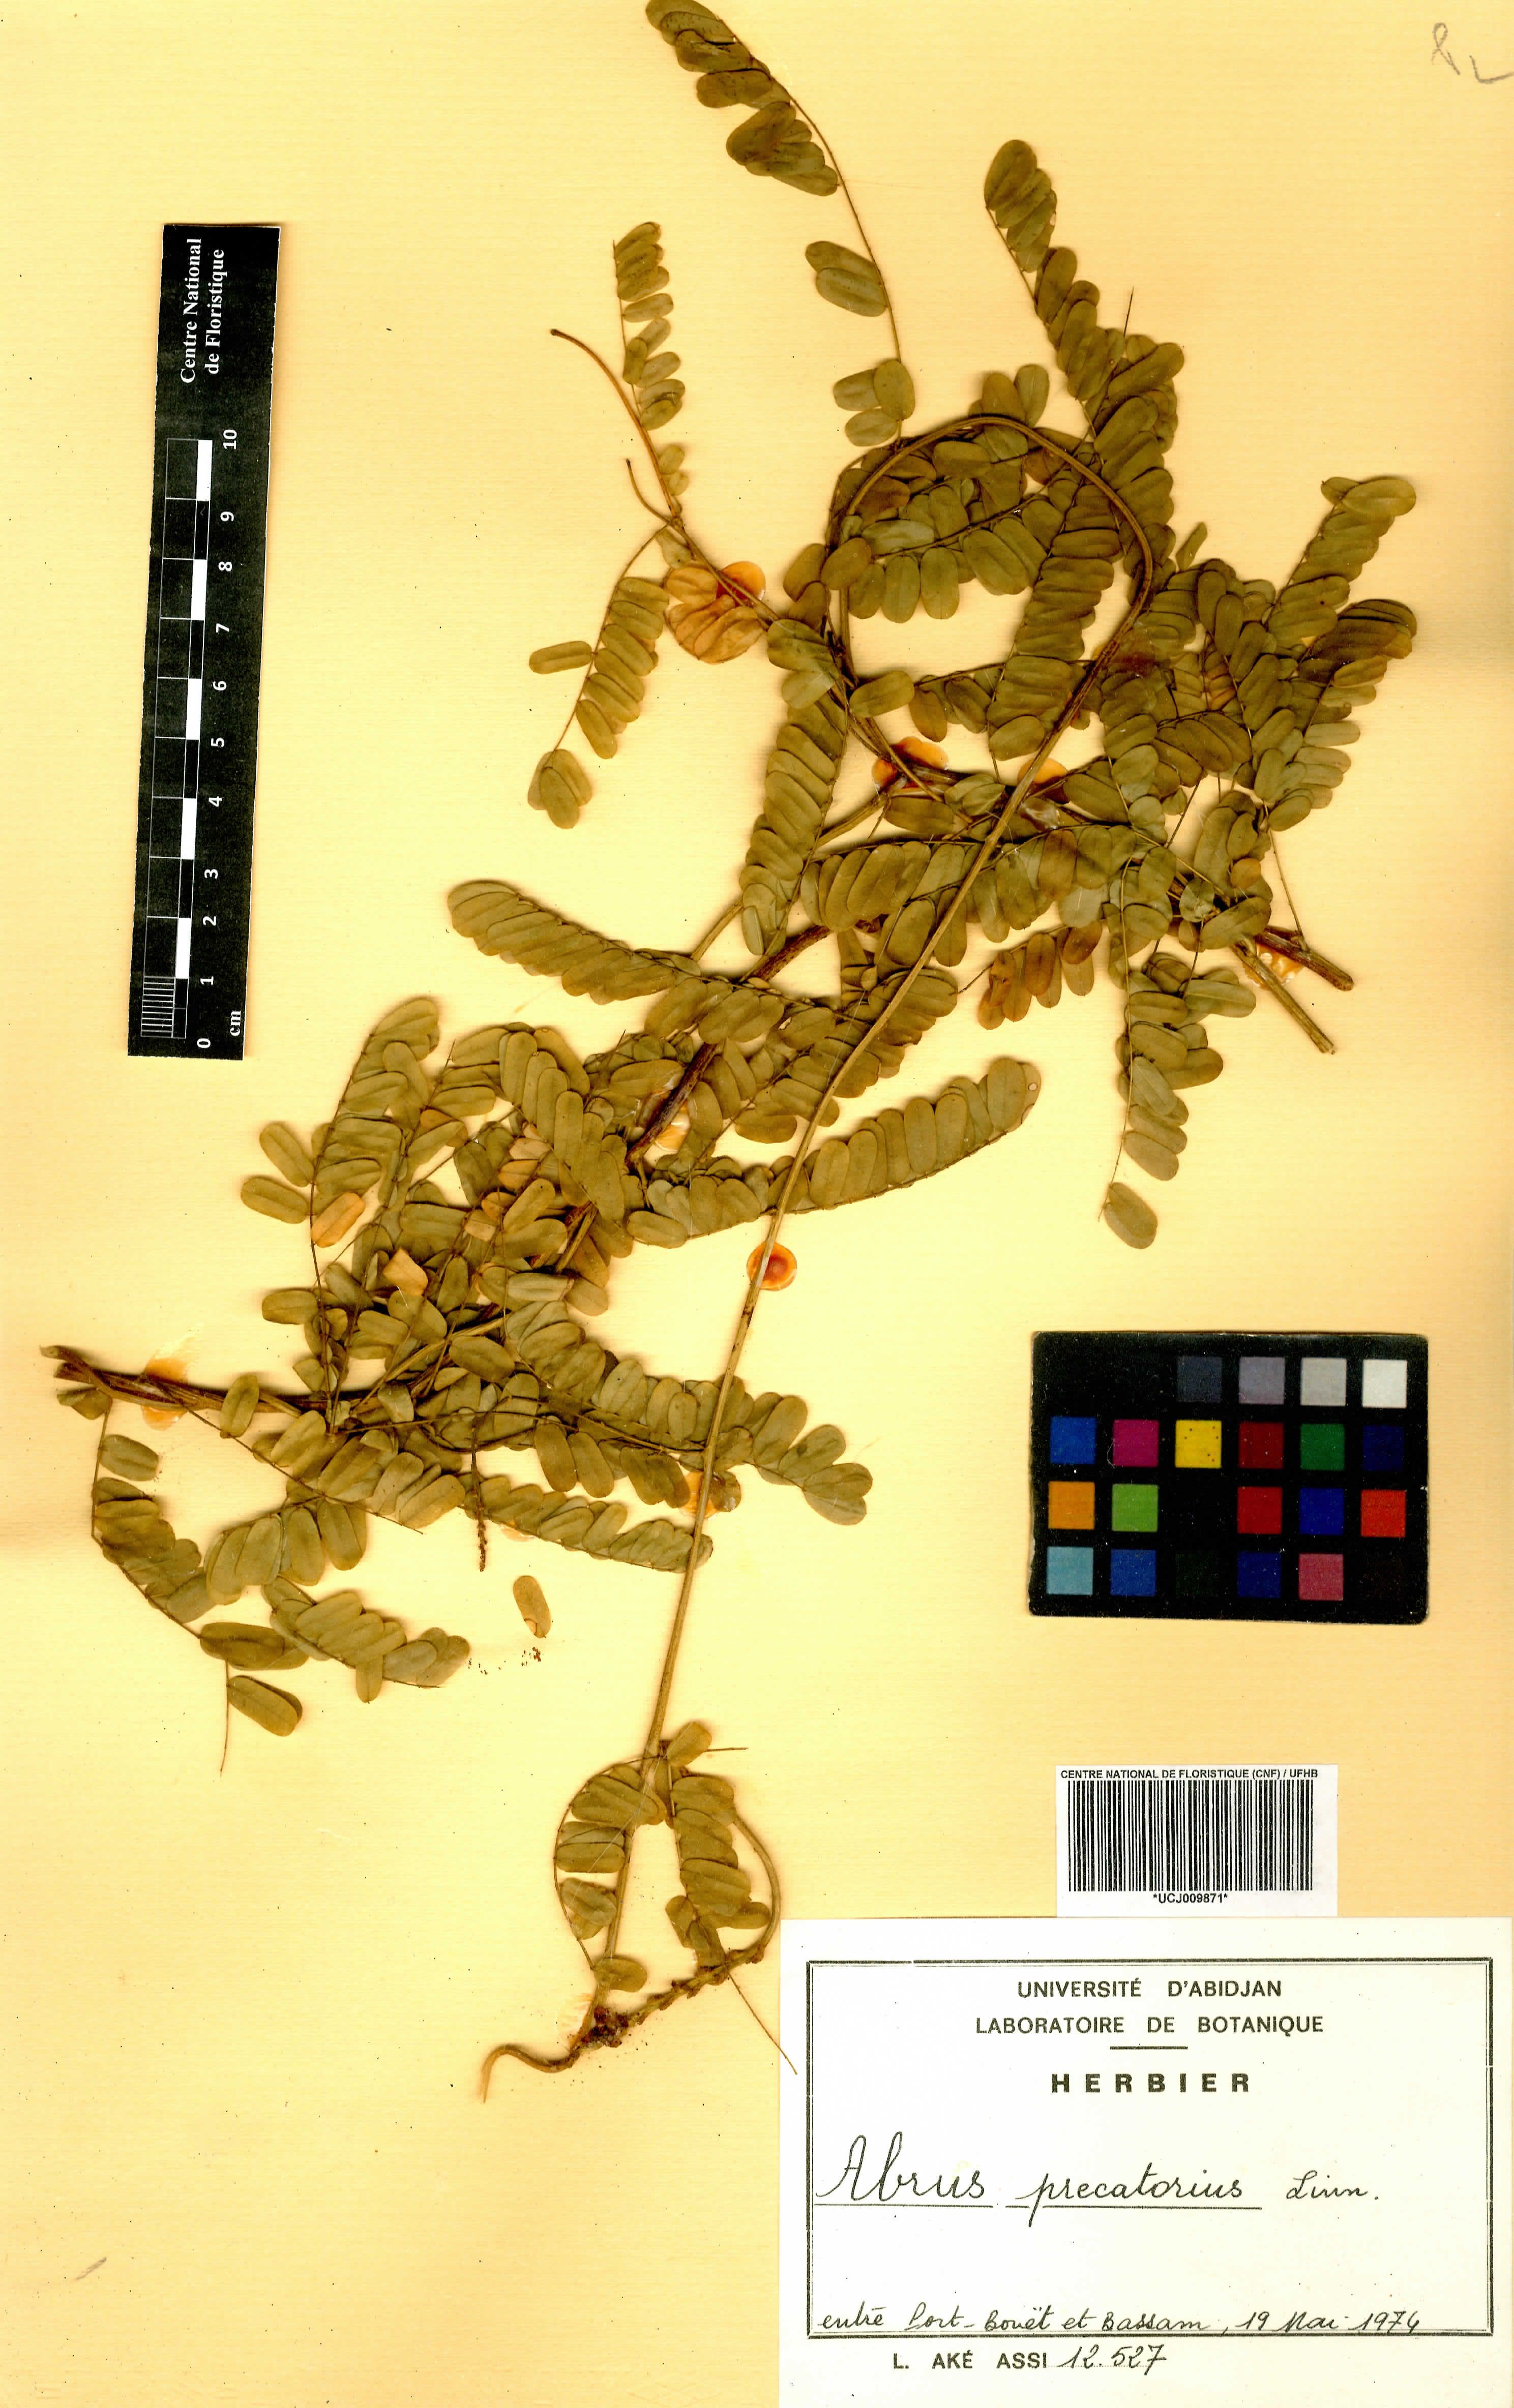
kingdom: Plantae
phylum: Tracheophyta
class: Magnoliopsida
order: Fabales
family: Fabaceae
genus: Abrus
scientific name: Abrus precatorius
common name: Rosarypea
